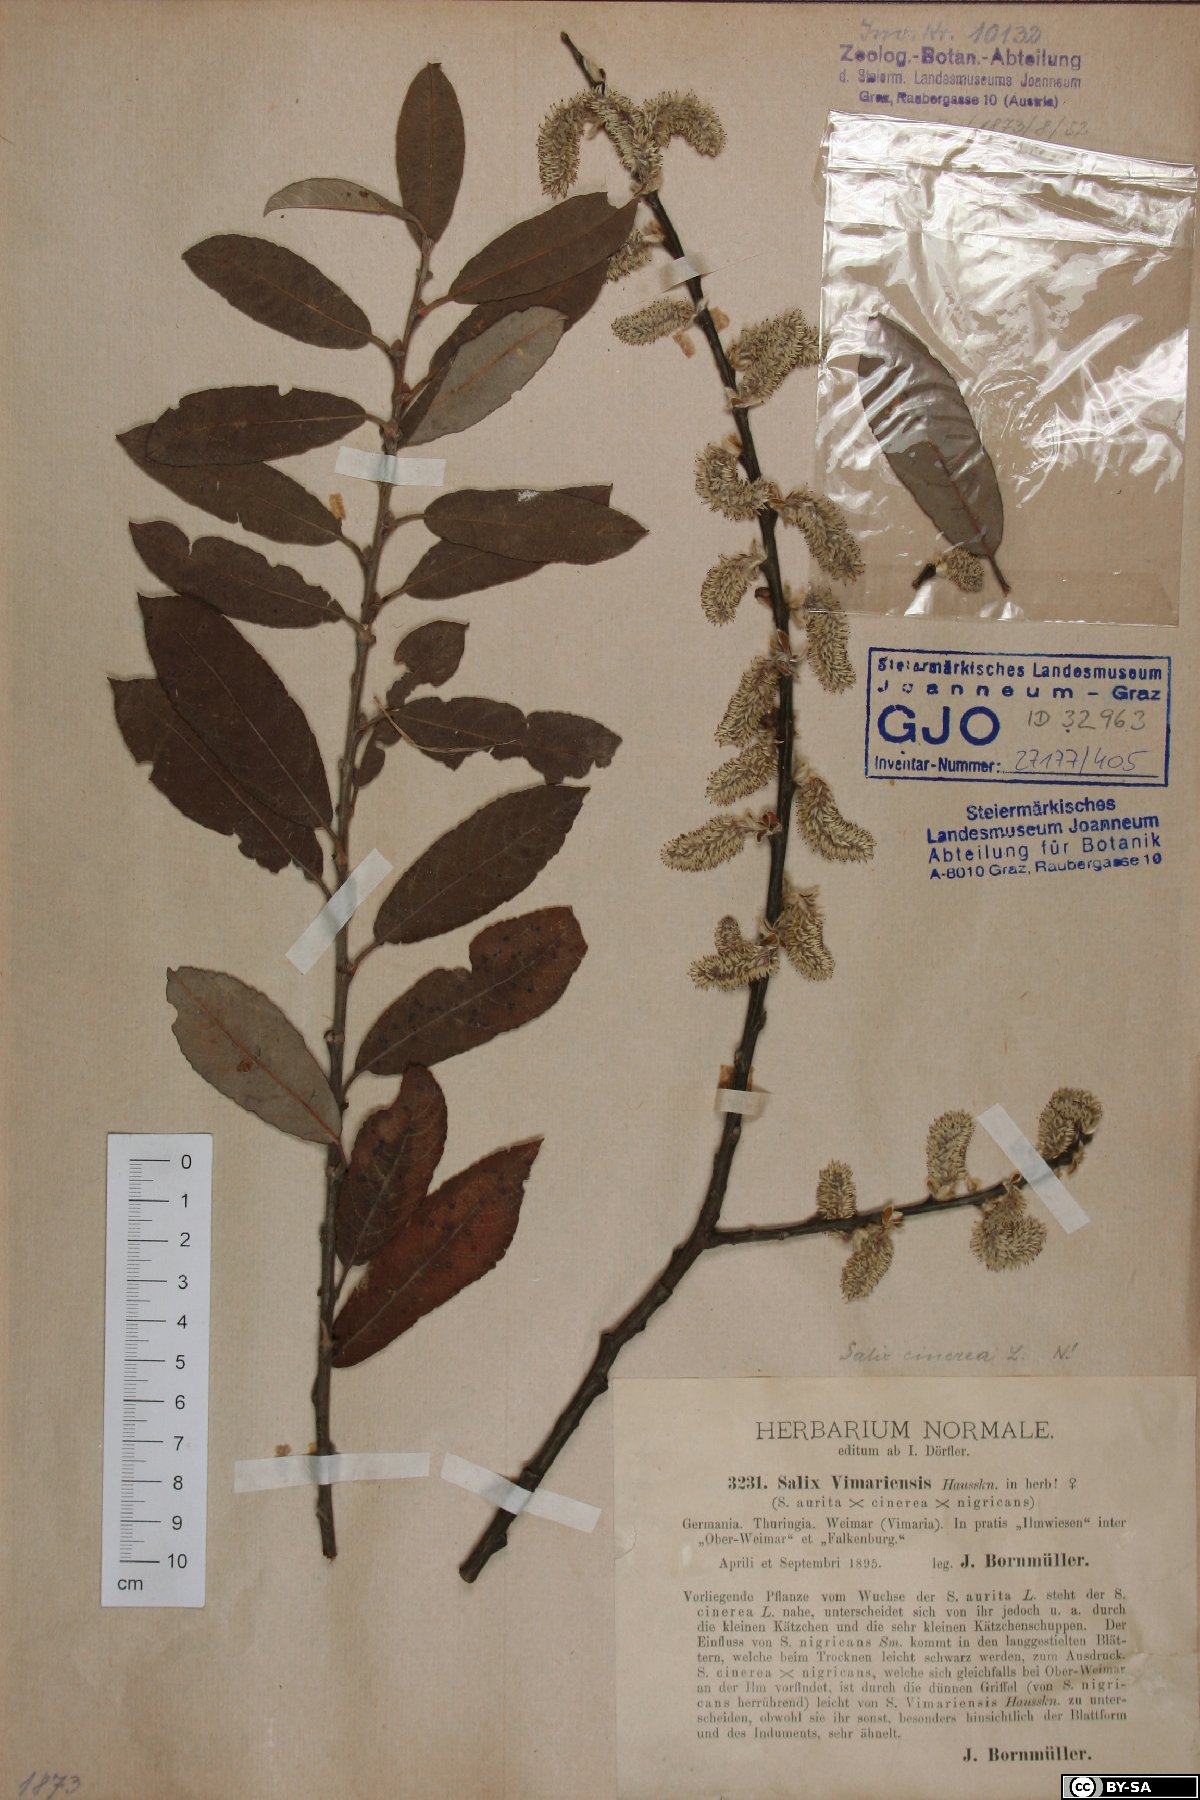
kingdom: Plantae
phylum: Tracheophyta
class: Magnoliopsida
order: Malpighiales
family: Salicaceae
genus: Salix
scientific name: Salix cinerea
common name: Common sallow
